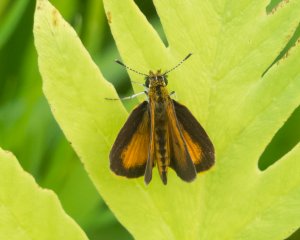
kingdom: Animalia
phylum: Arthropoda
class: Insecta
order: Lepidoptera
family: Hesperiidae
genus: Ancyloxypha
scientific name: Ancyloxypha numitor
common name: Least Skipper
